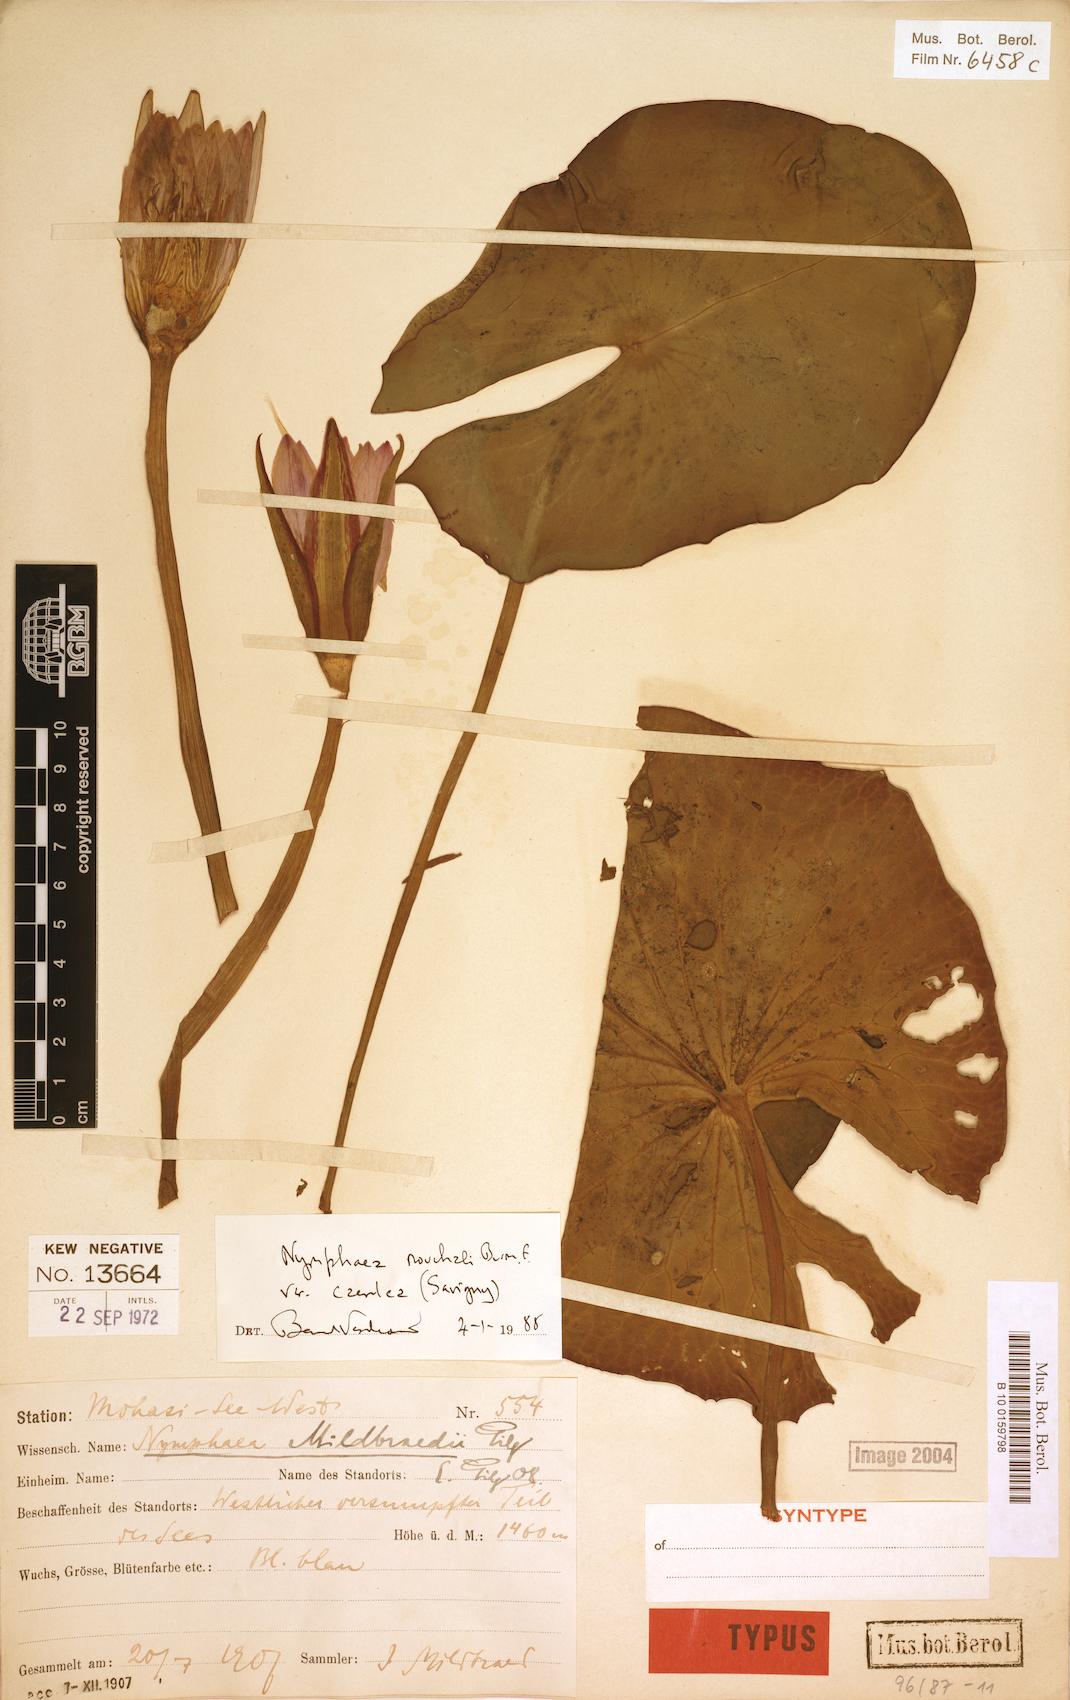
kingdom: Plantae
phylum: Tracheophyta
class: Magnoliopsida
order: Nymphaeales
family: Nymphaeaceae
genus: Nymphaea
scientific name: Nymphaea nouchali
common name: Blue lotus
